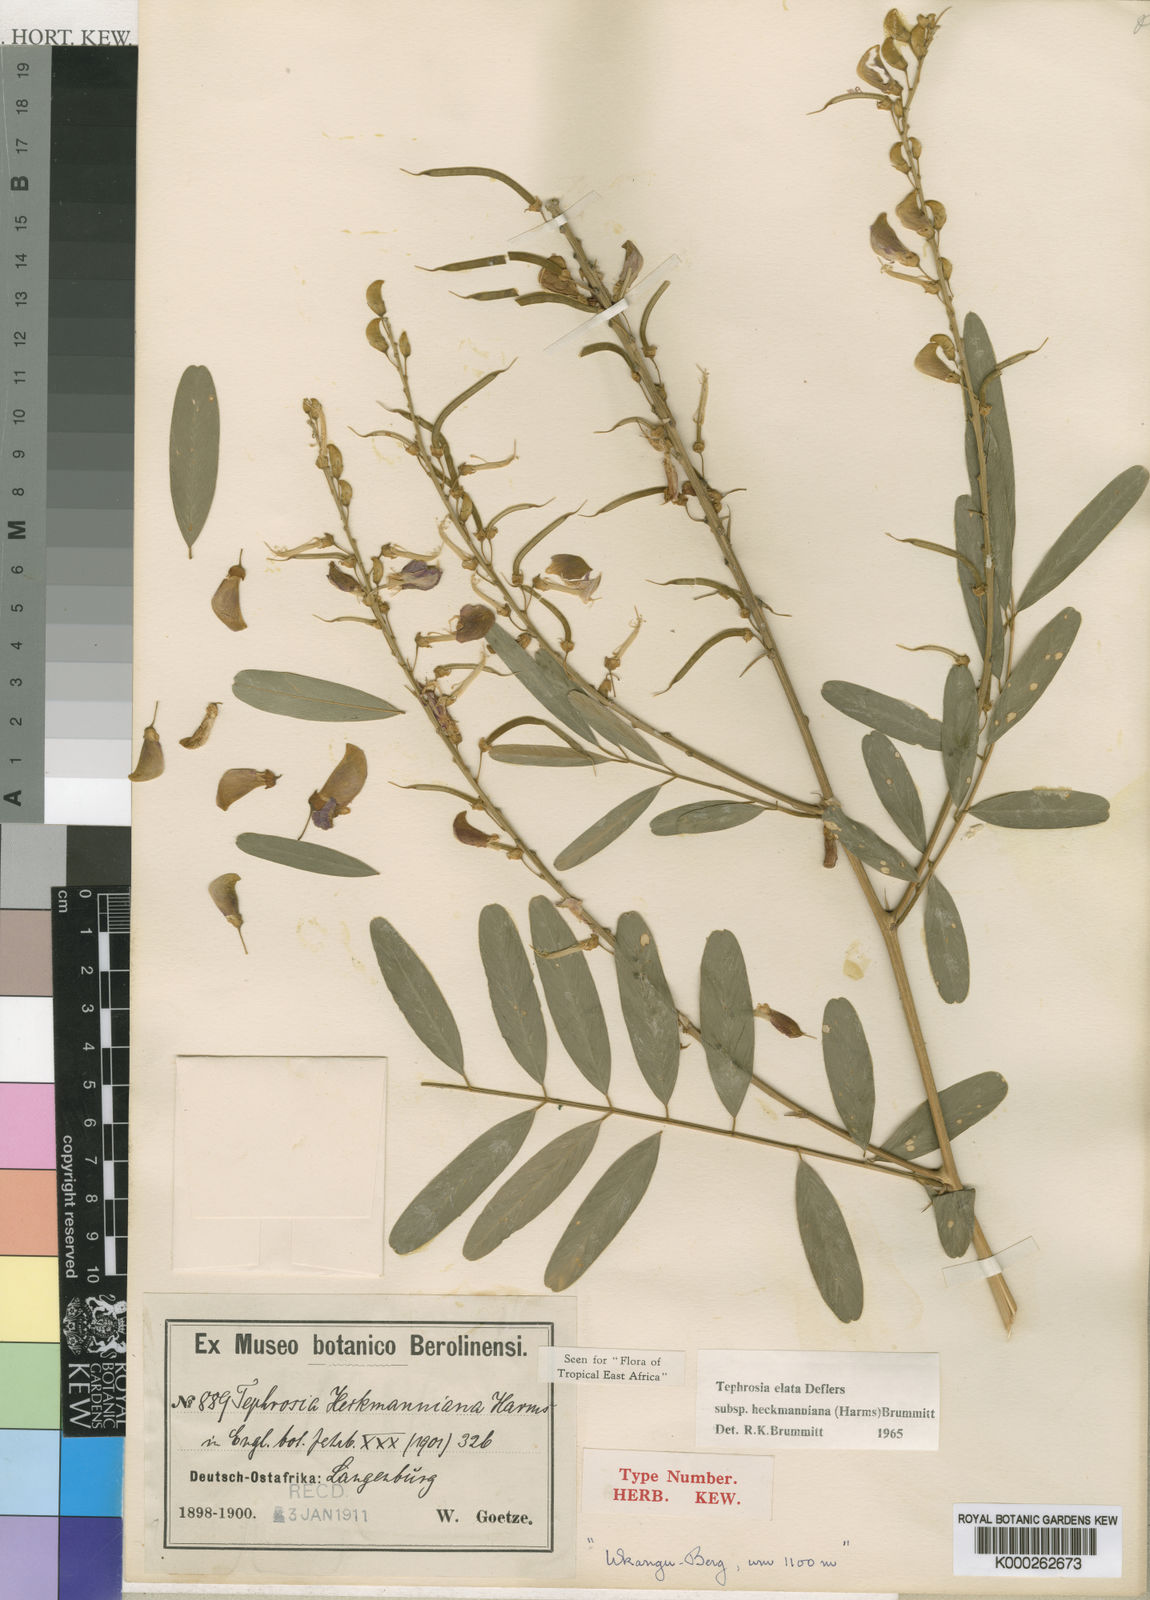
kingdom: Plantae
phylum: Tracheophyta
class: Magnoliopsida
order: Fabales
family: Fabaceae
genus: Tephrosia
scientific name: Tephrosia elata
